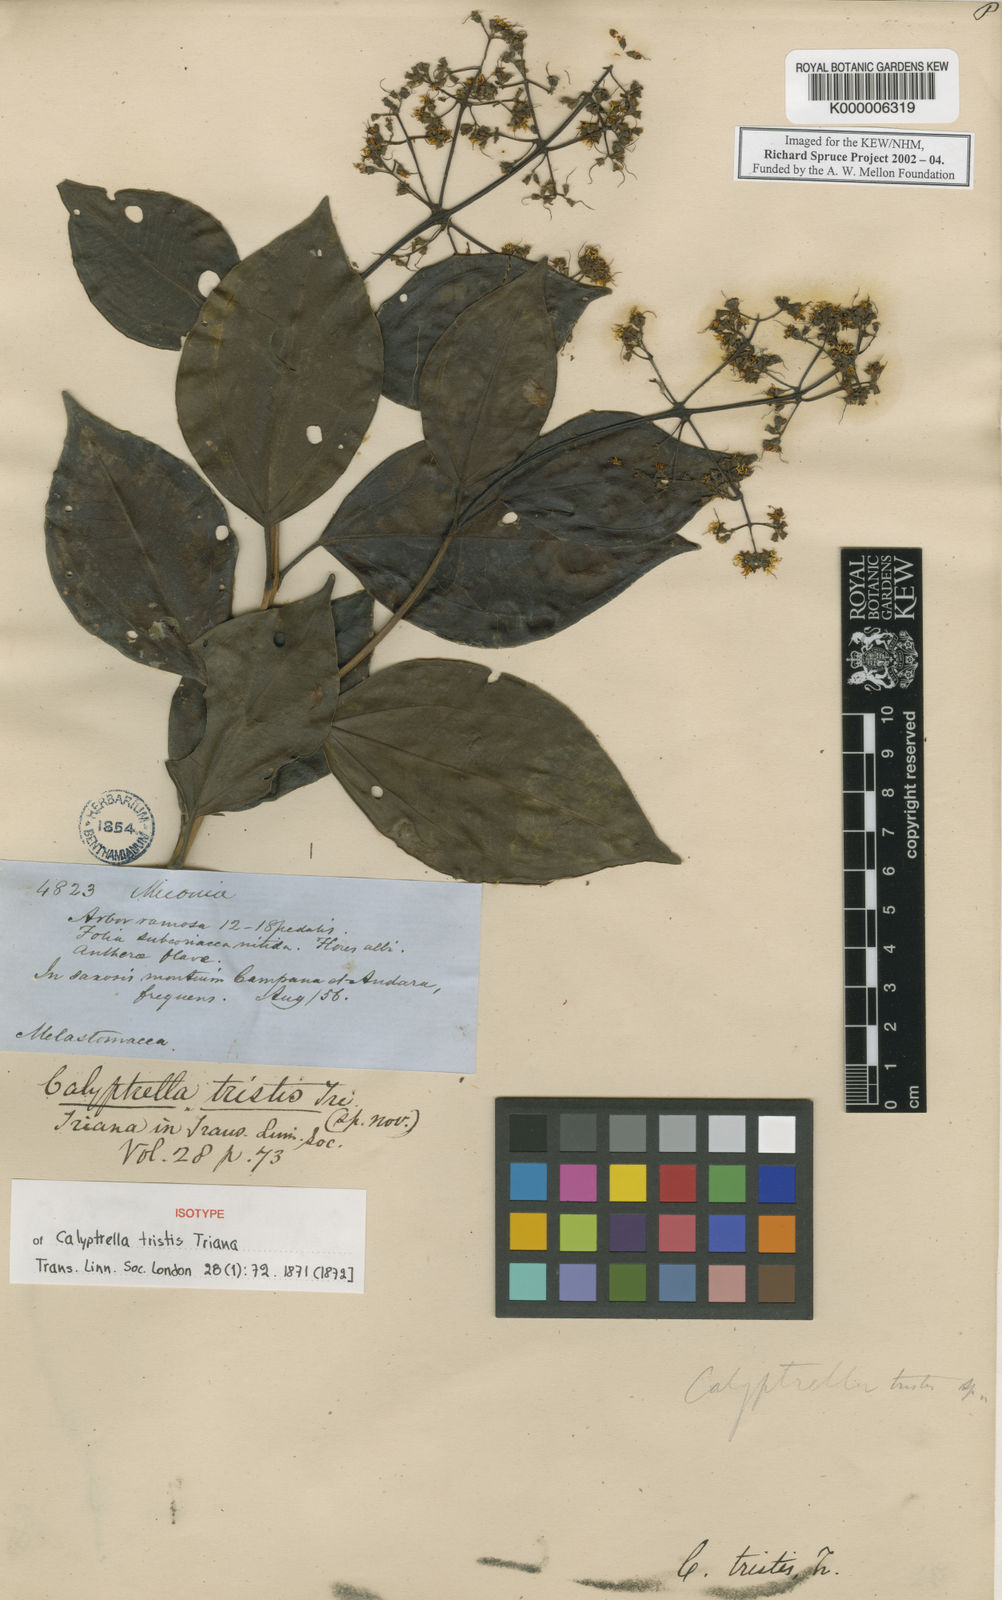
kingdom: Plantae
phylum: Tracheophyta
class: Magnoliopsida
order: Myrtales
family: Melastomataceae
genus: Graffenrieda
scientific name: Graffenrieda tristis
